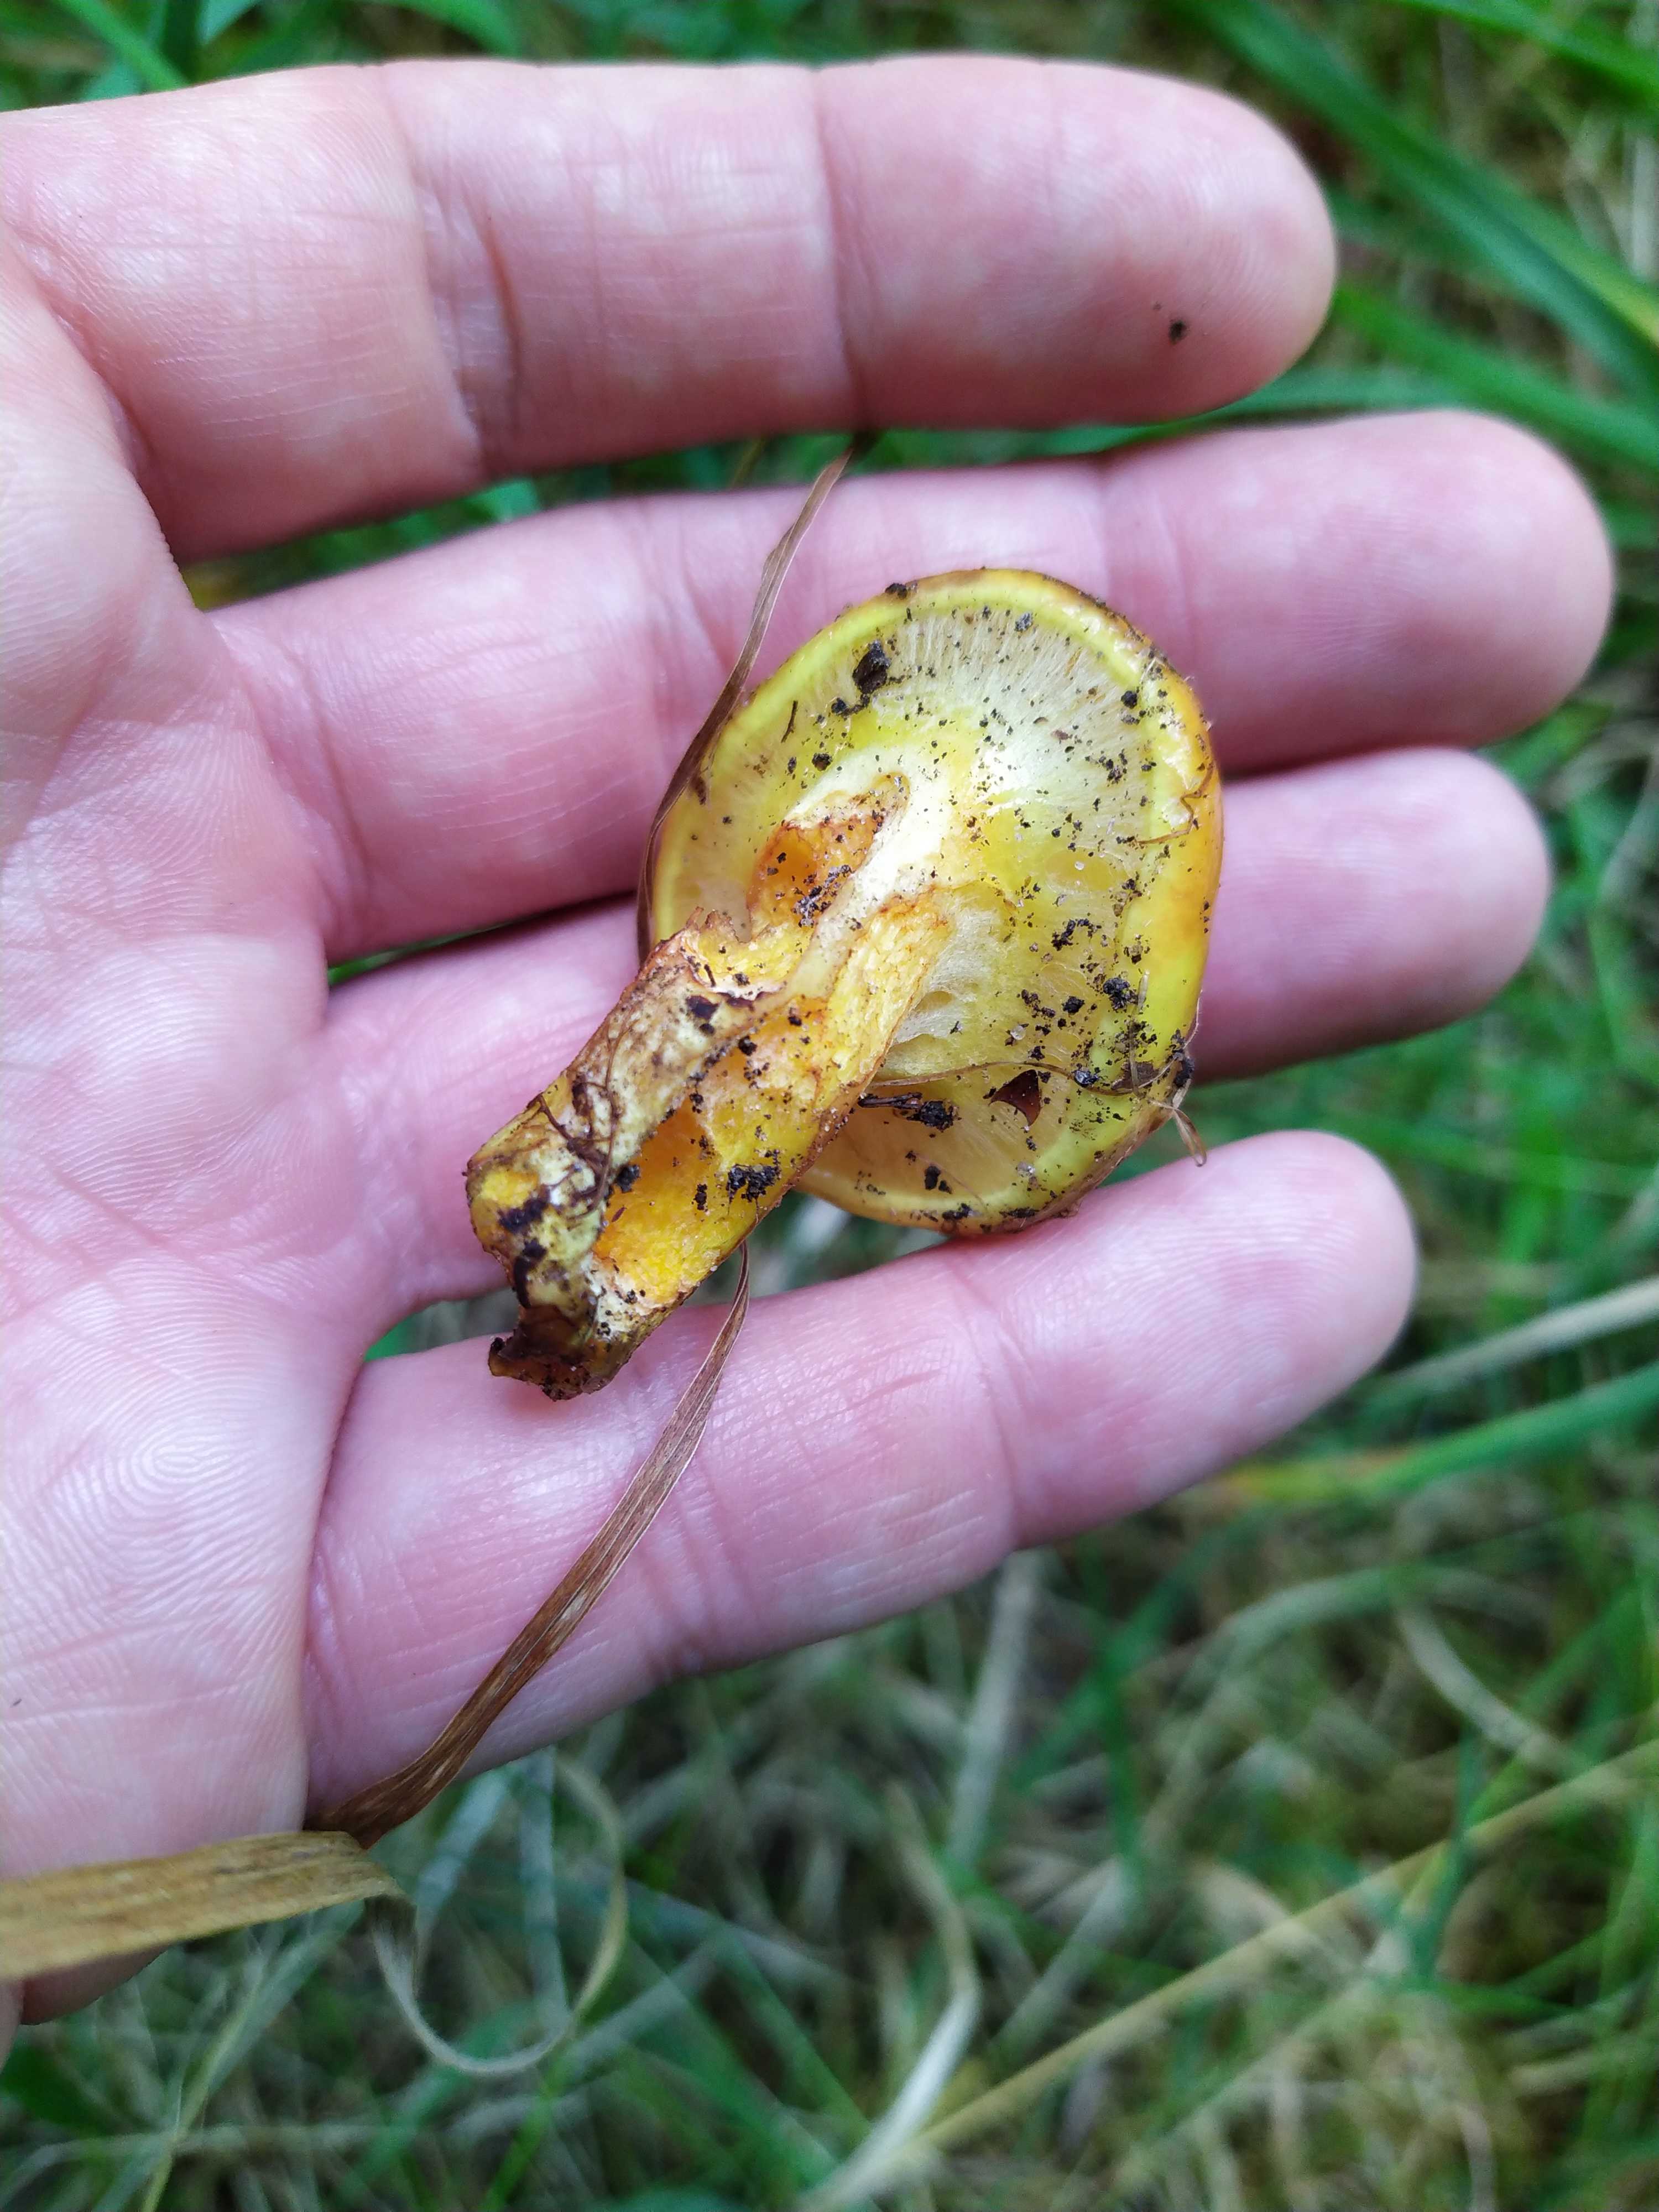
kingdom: Fungi
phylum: Basidiomycota
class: Agaricomycetes
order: Boletales
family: Suillaceae
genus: Suillus
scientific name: Suillus grevillei
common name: lærke-slimrørhat
